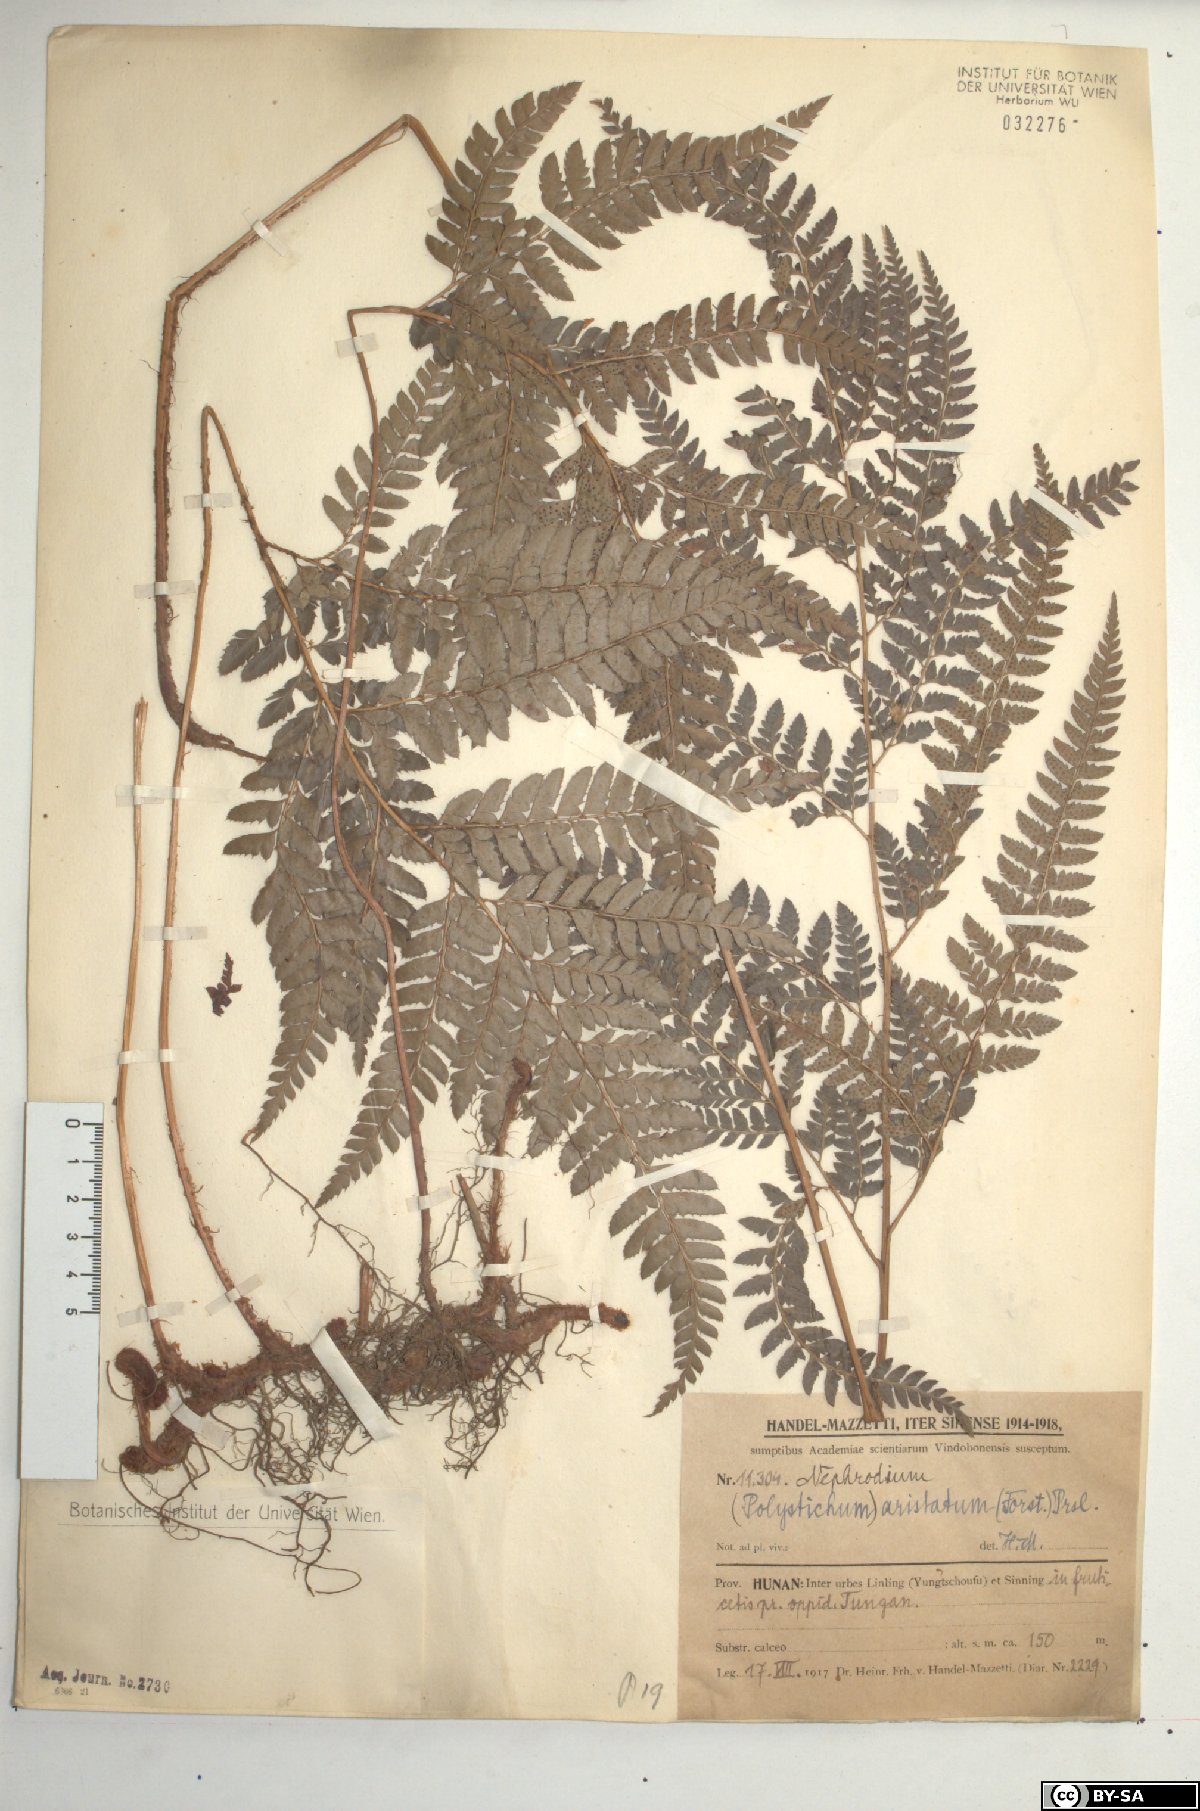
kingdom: Plantae
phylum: Tracheophyta
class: Polypodiopsida
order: Polypodiales
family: Dryopteridaceae
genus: Arachniodes
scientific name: Arachniodes aristata
